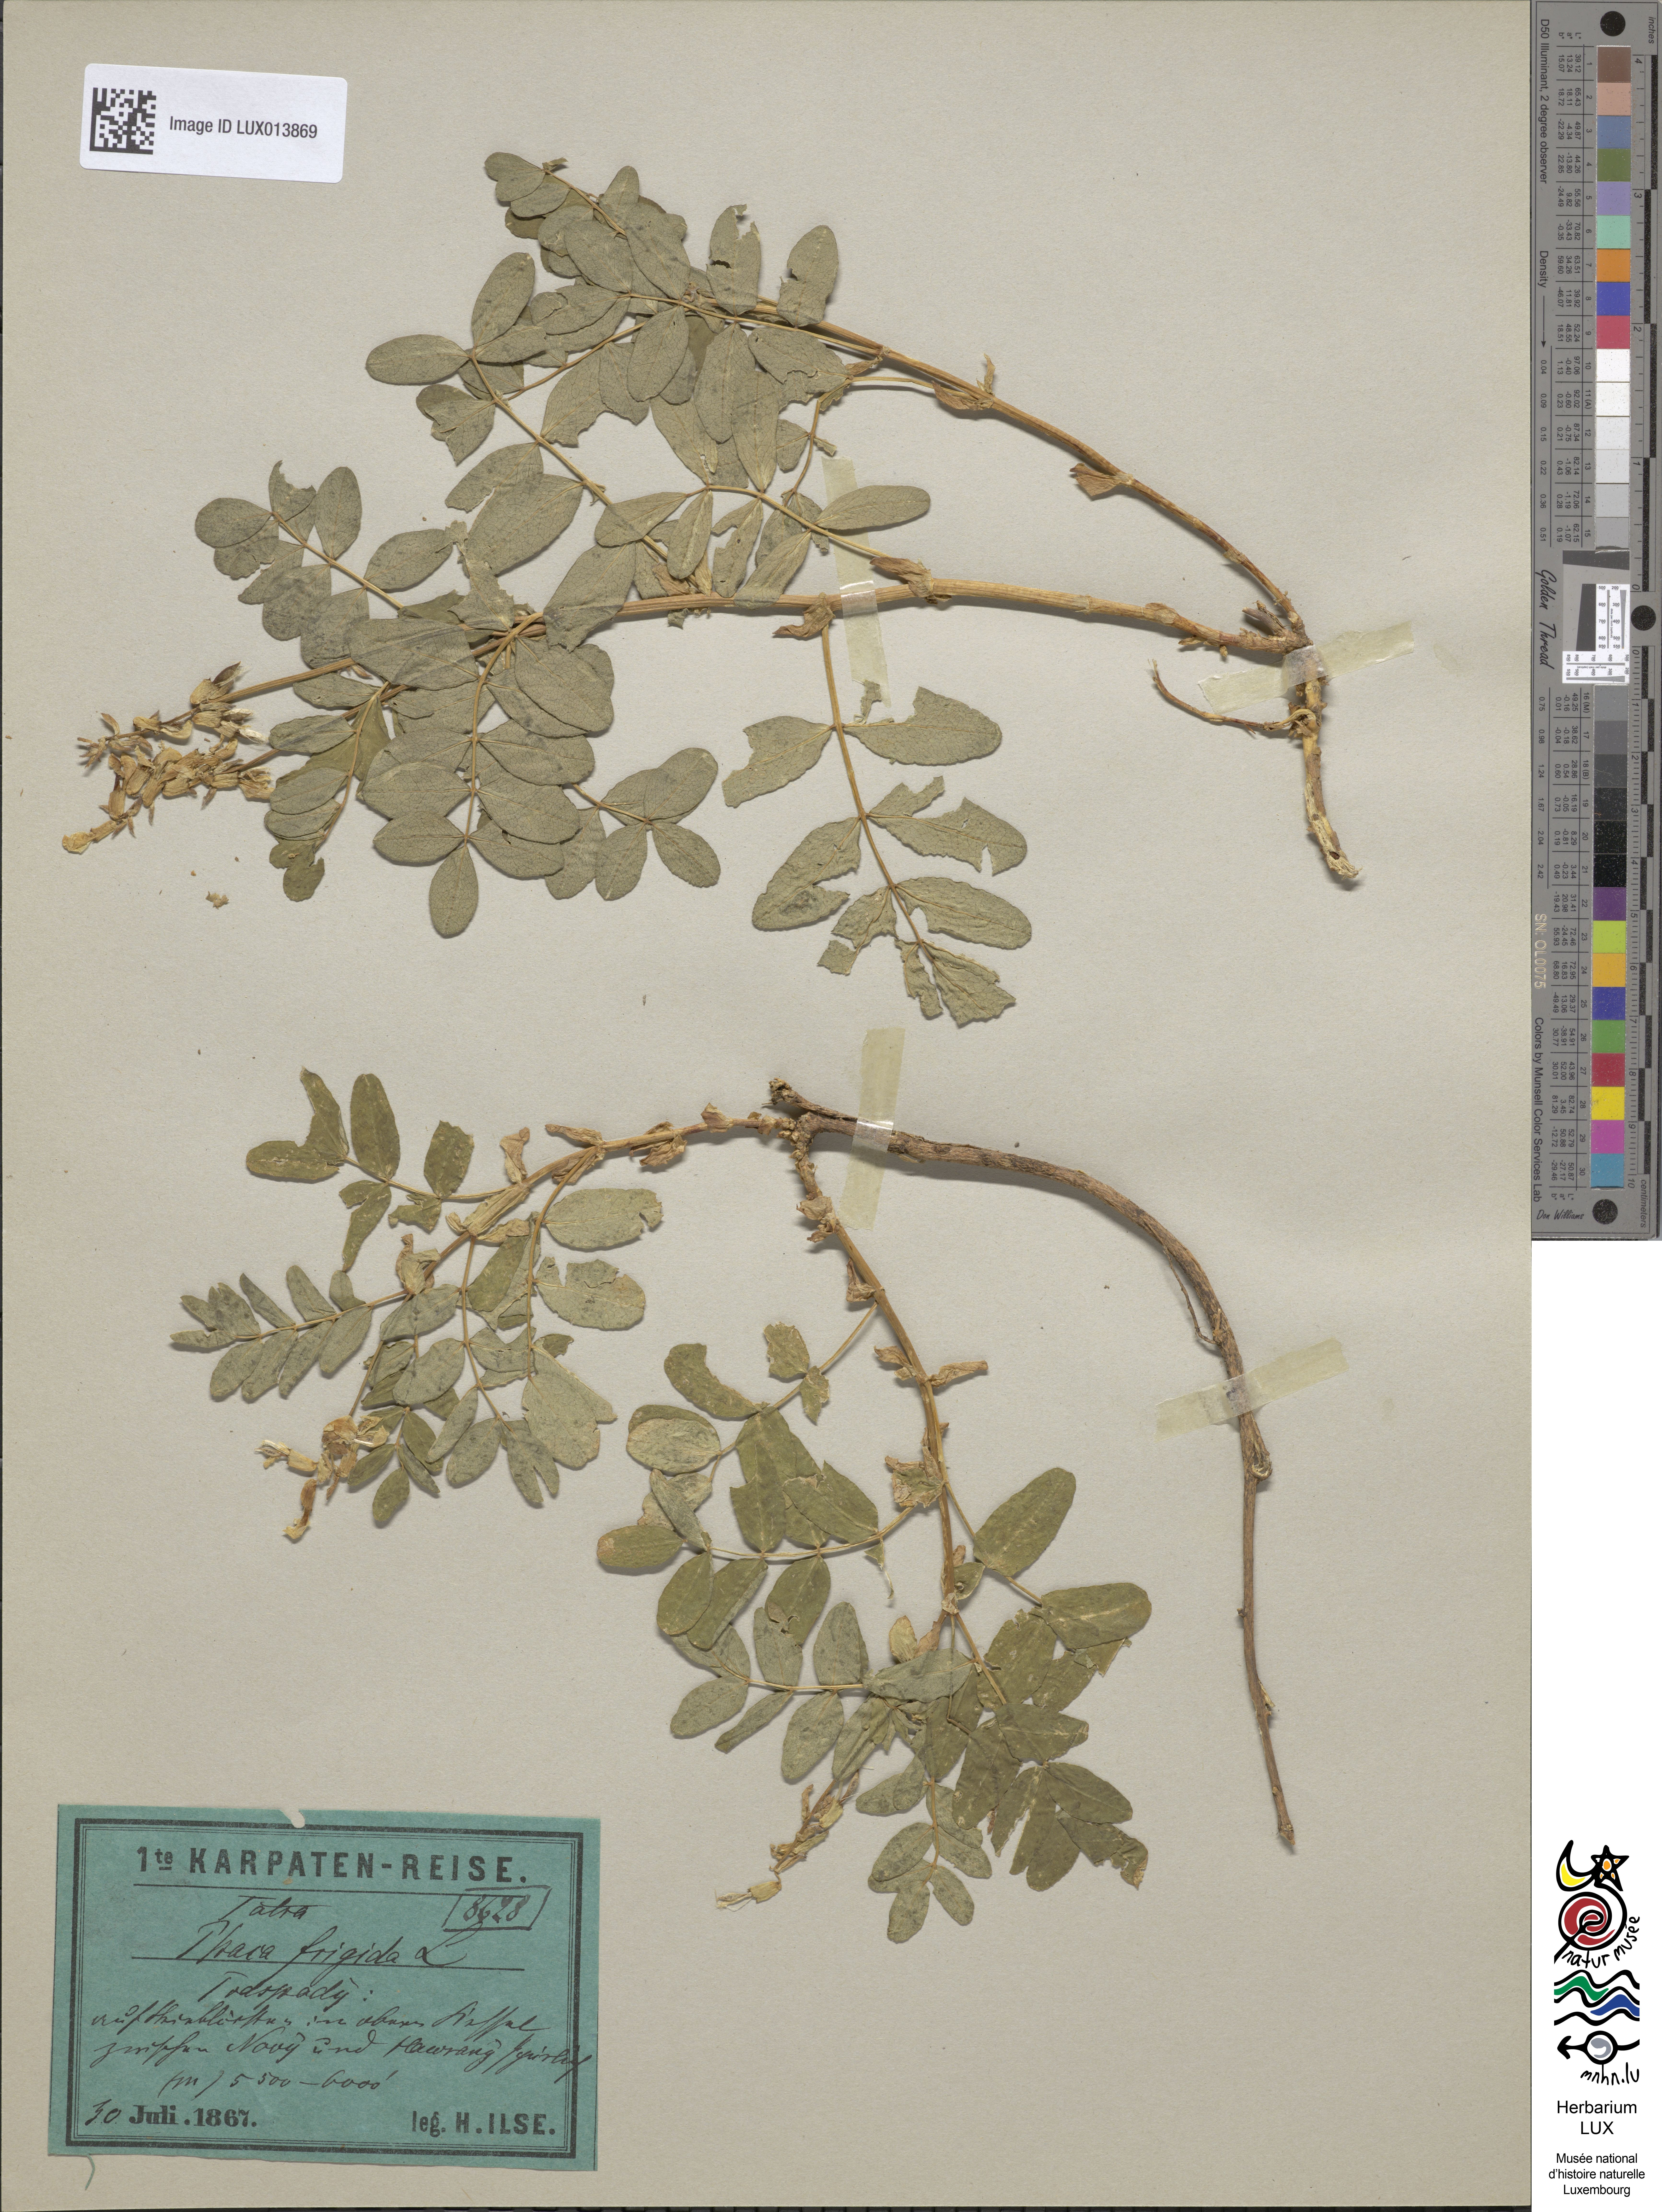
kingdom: Plantae
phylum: Tracheophyta
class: Magnoliopsida
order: Fabales
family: Fabaceae
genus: Astragalus
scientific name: Astragalus frigidus
